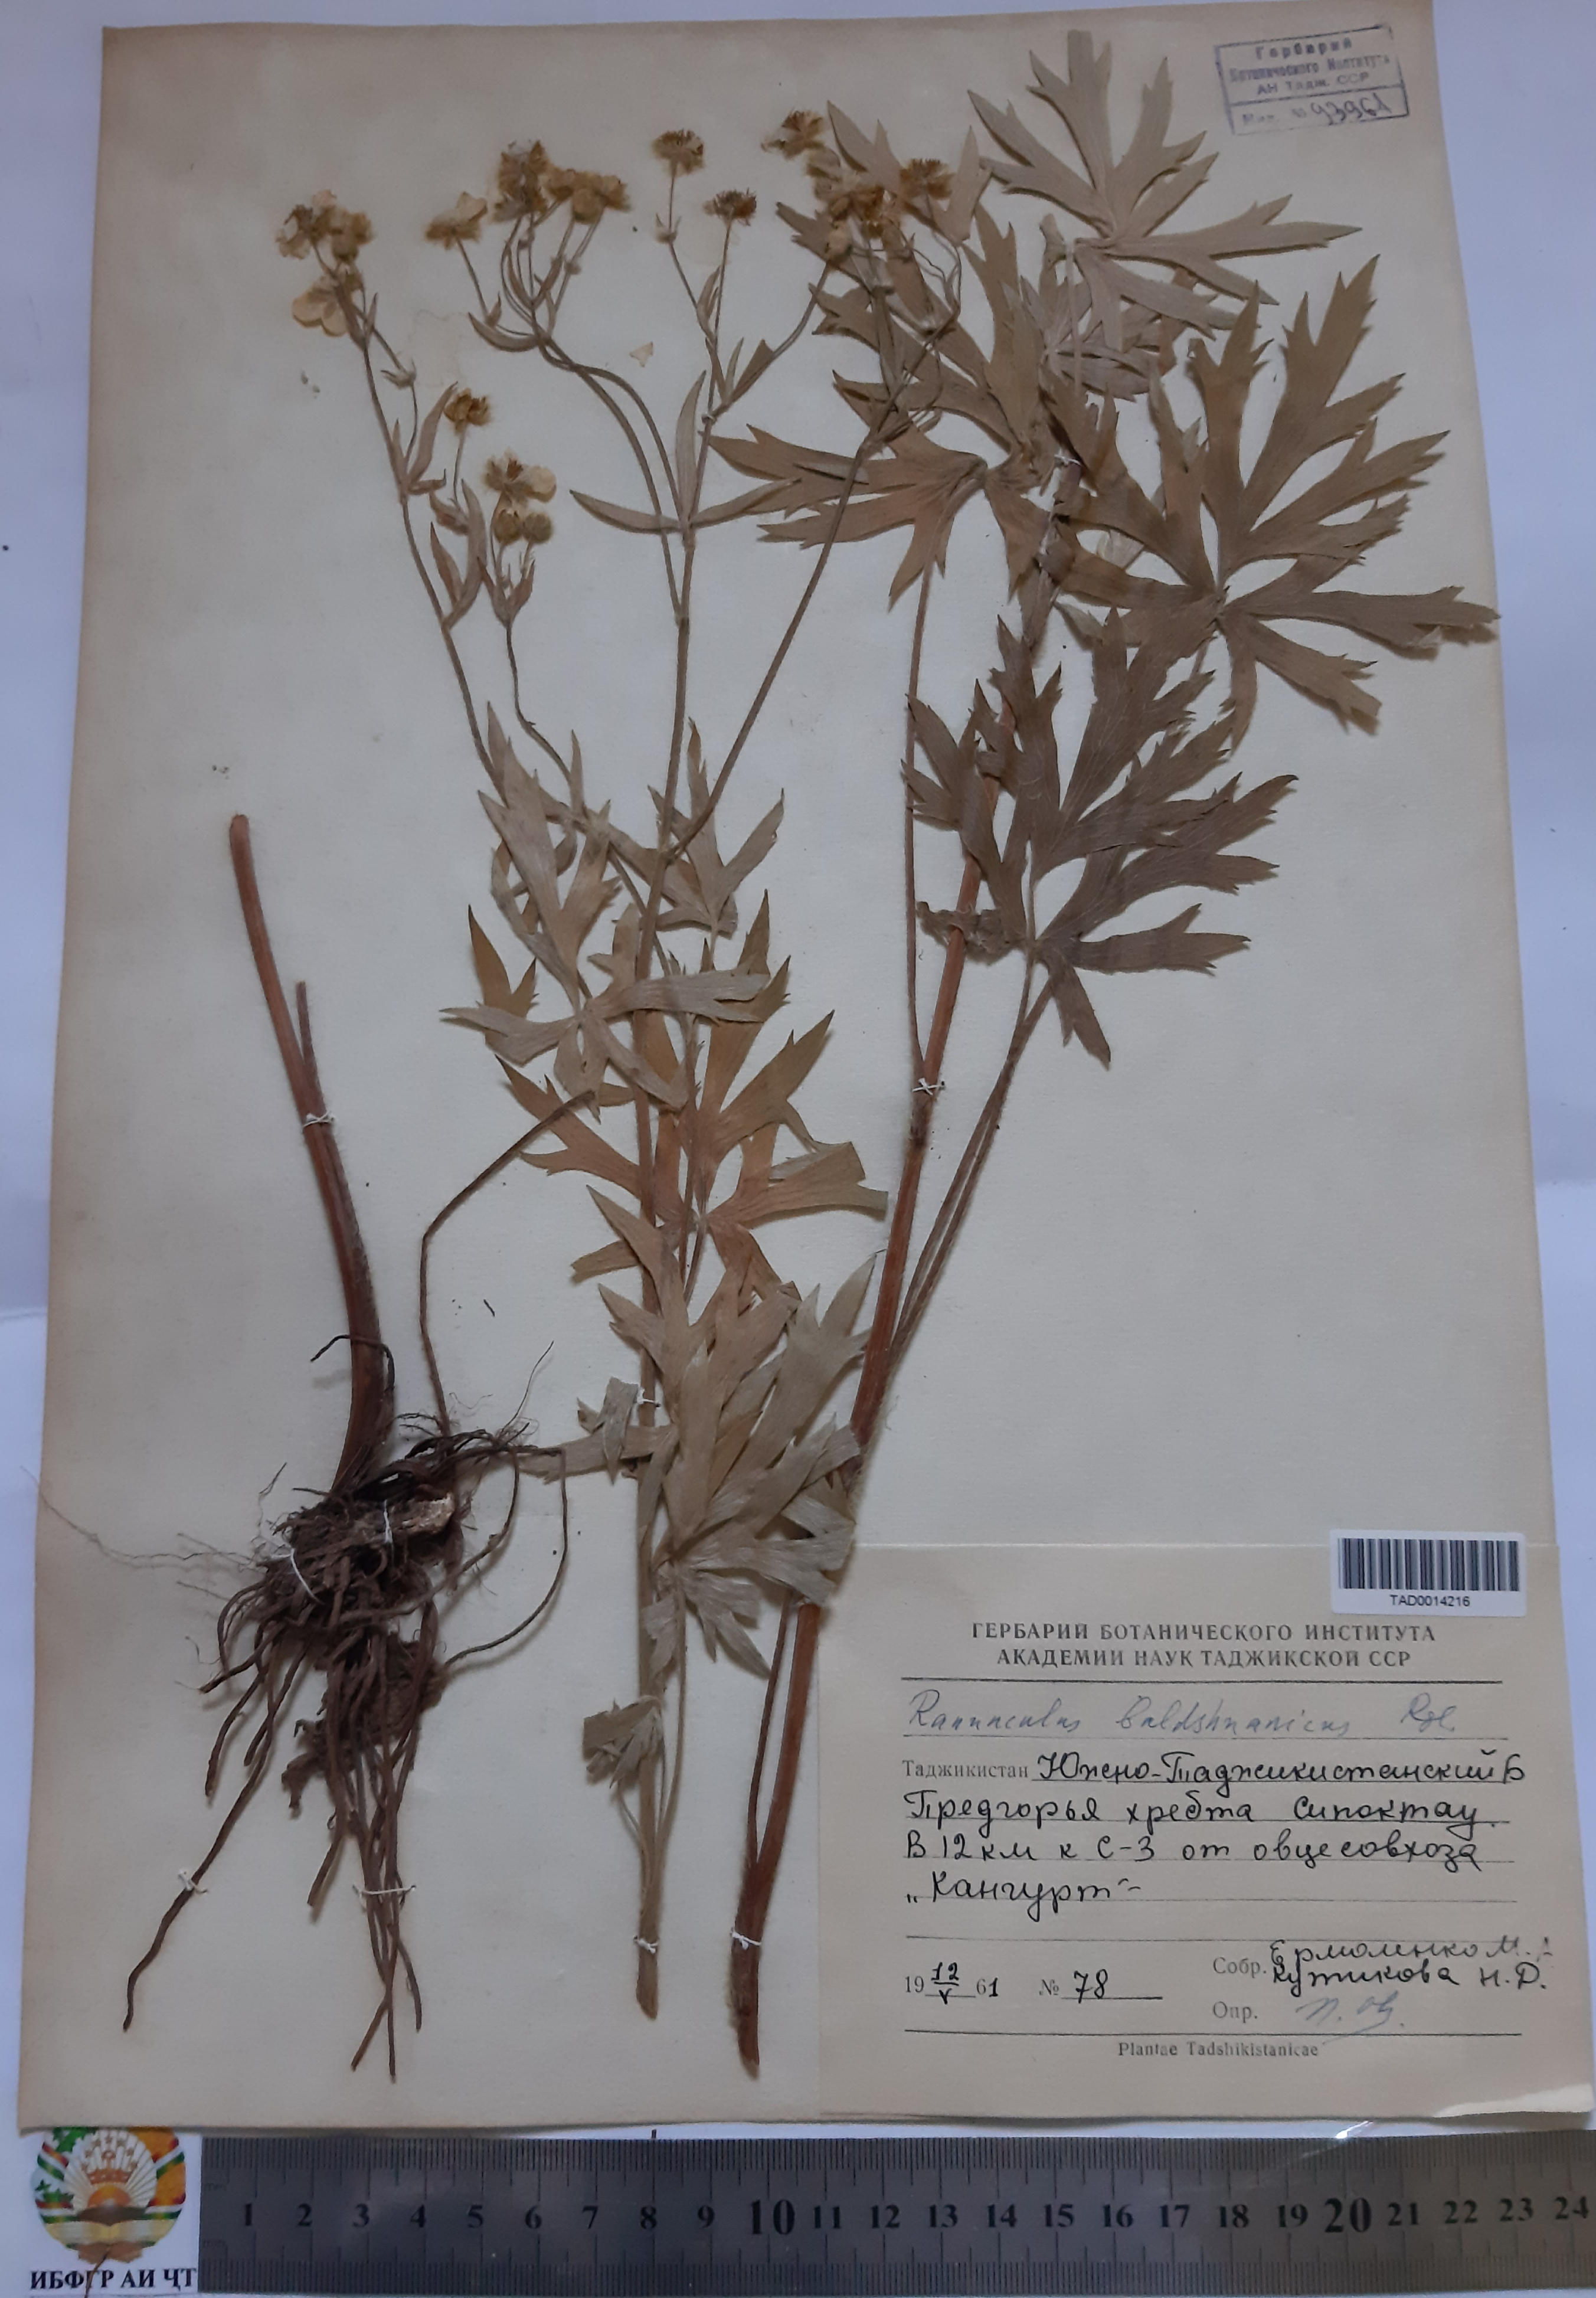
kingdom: Plantae
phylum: Tracheophyta
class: Magnoliopsida
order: Ranunculales
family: Ranunculaceae
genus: Ranunculus
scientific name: Ranunculus baldshuanicus
